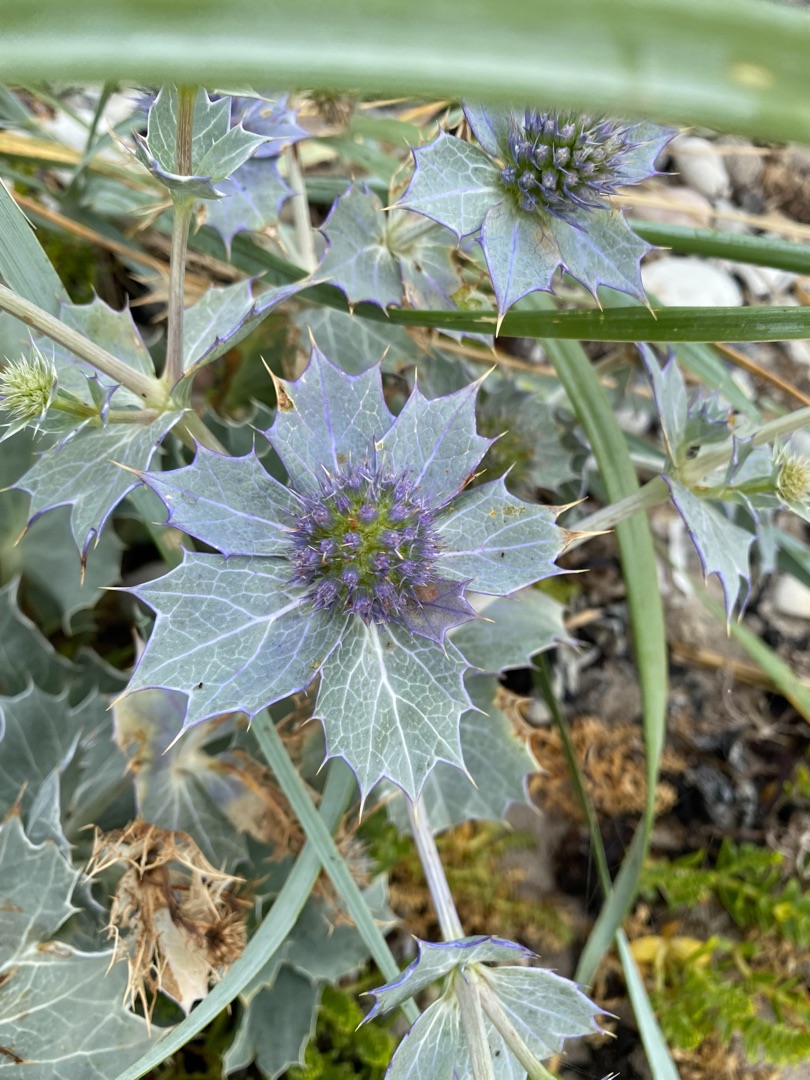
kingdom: Plantae
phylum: Tracheophyta
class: Magnoliopsida
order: Apiales
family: Apiaceae
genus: Eryngium
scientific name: Eryngium maritimum
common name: Strand-mandstro
